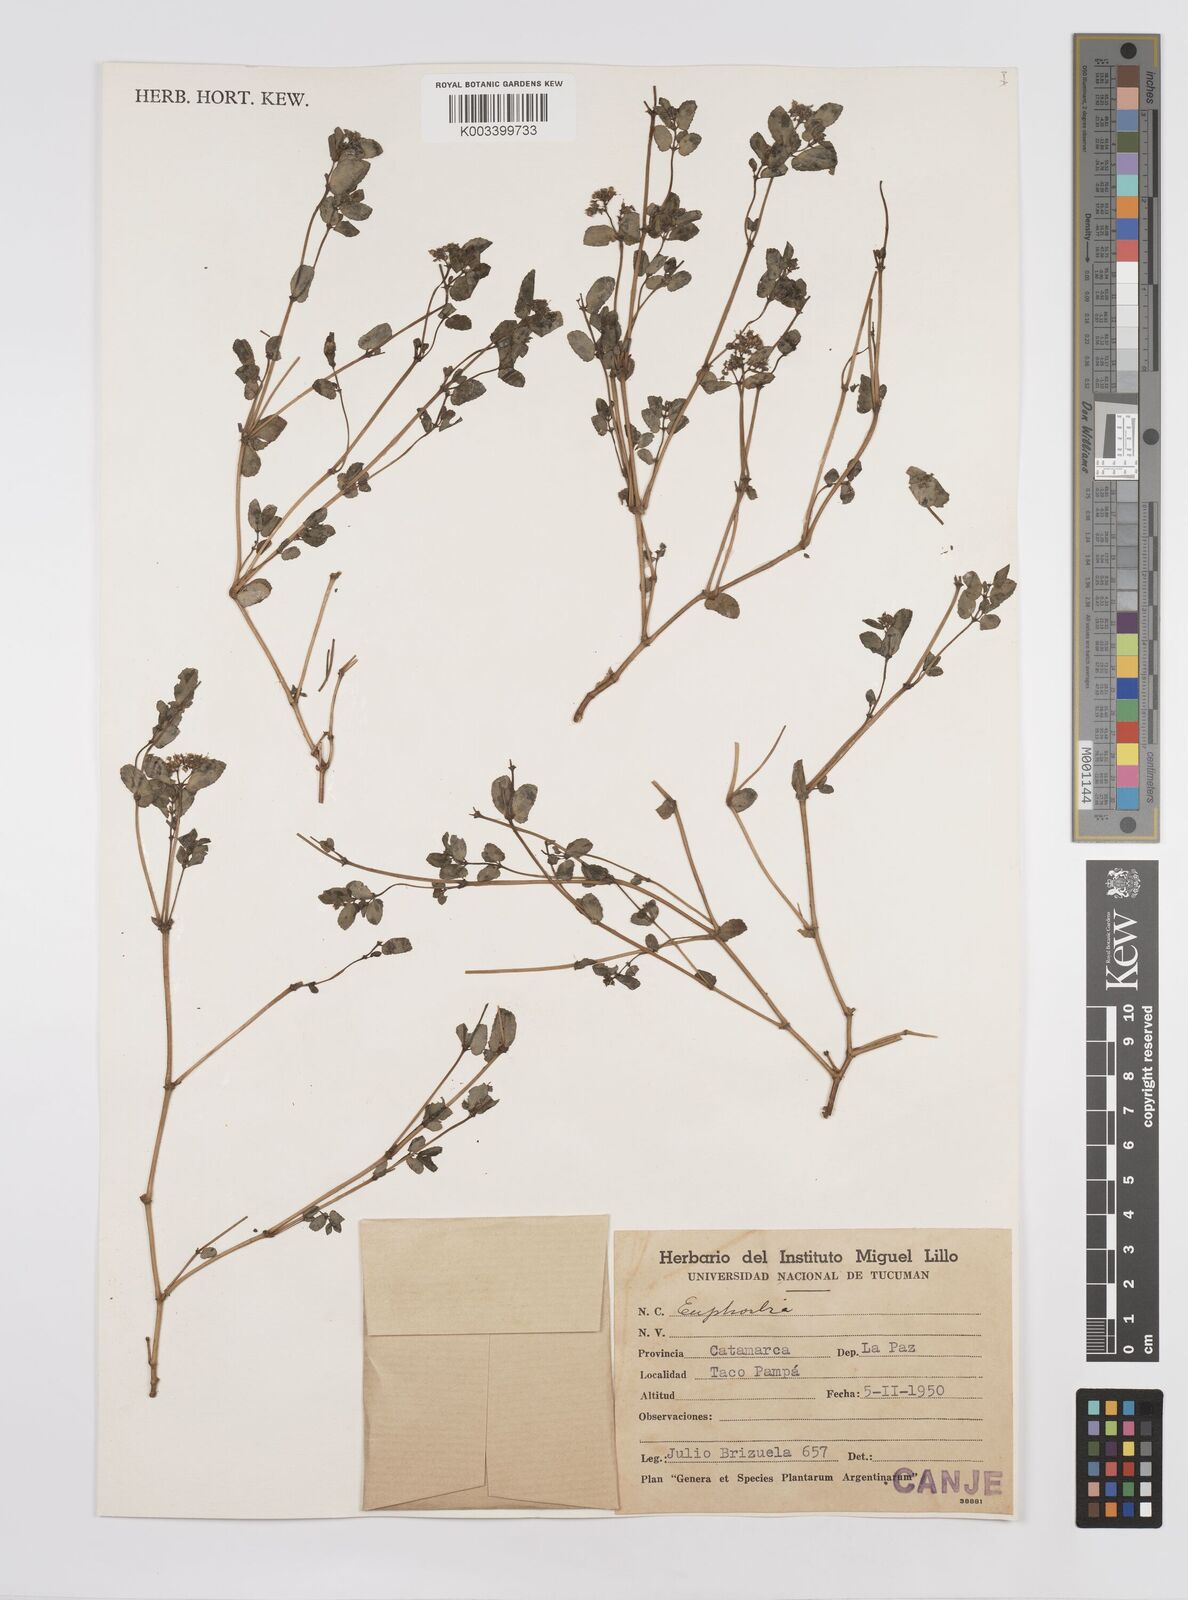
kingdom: Plantae
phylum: Tracheophyta
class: Magnoliopsida
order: Malpighiales
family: Euphorbiaceae
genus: Euphorbia
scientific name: Euphorbia
